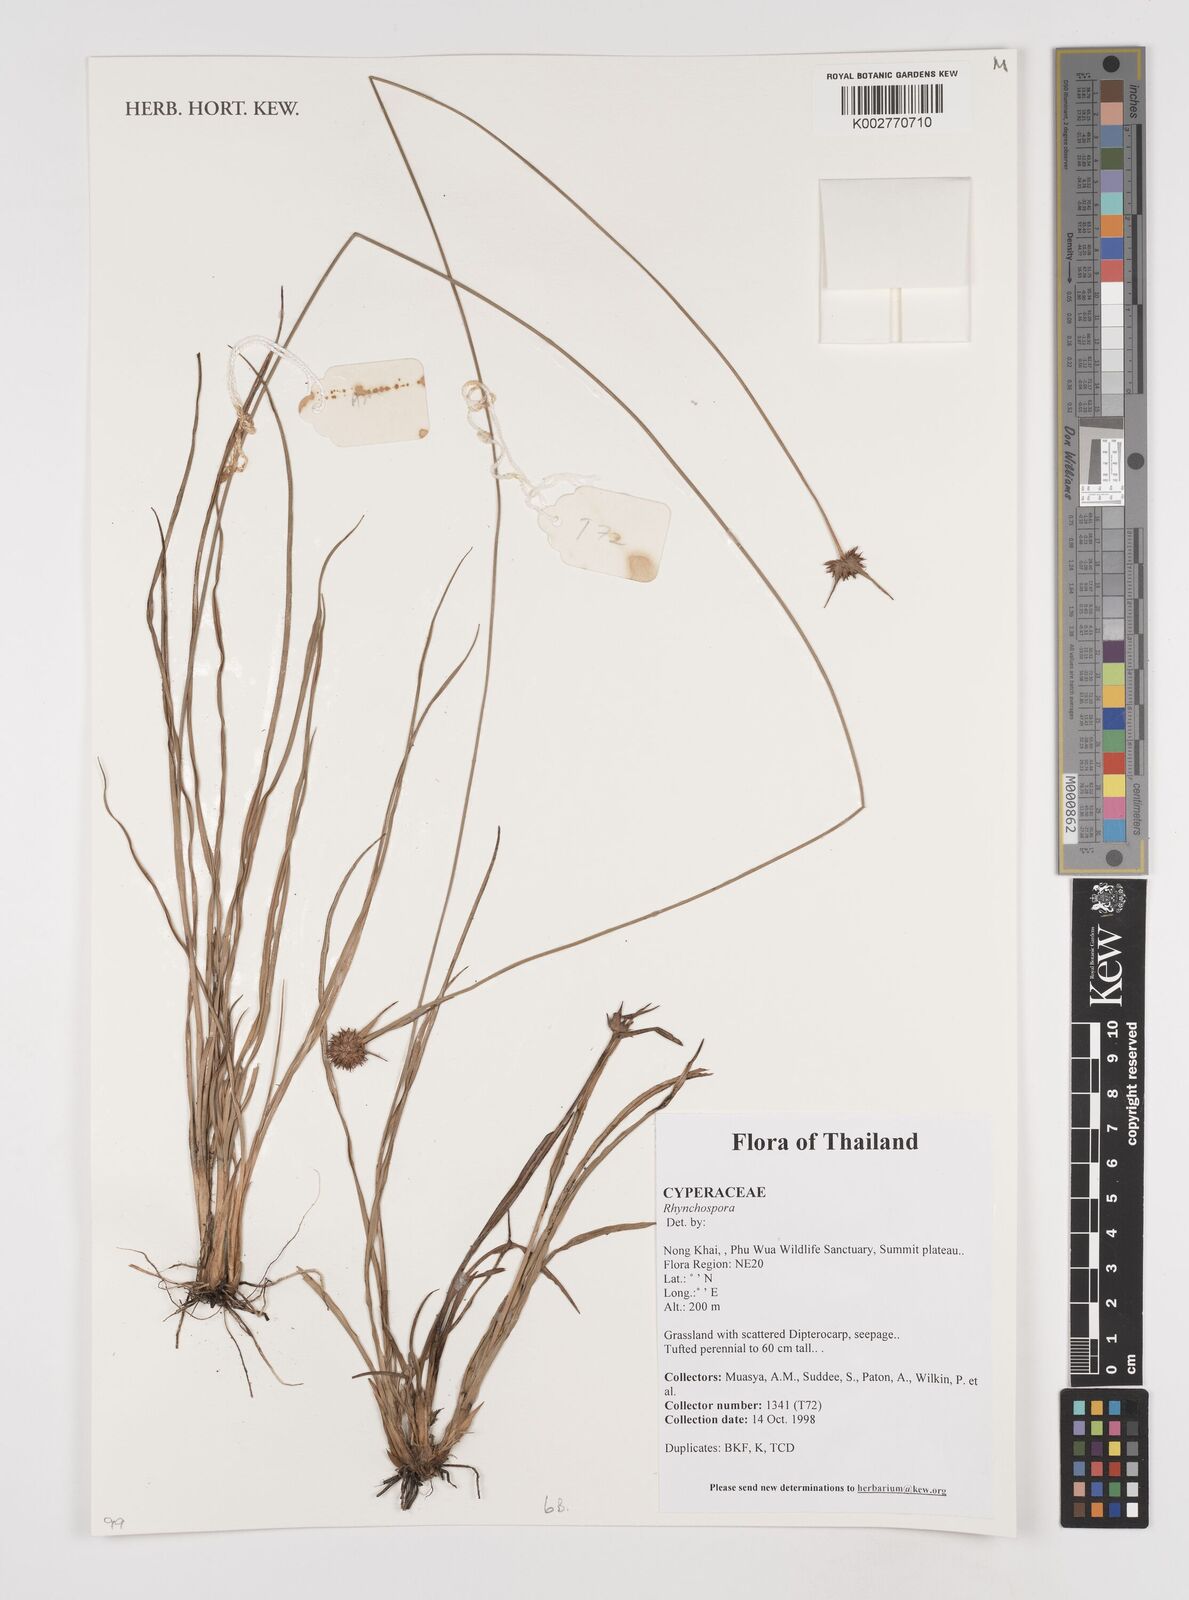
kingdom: Plantae
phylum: Tracheophyta
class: Liliopsida
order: Poales
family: Cyperaceae
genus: Rhynchospora
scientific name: Rhynchospora
